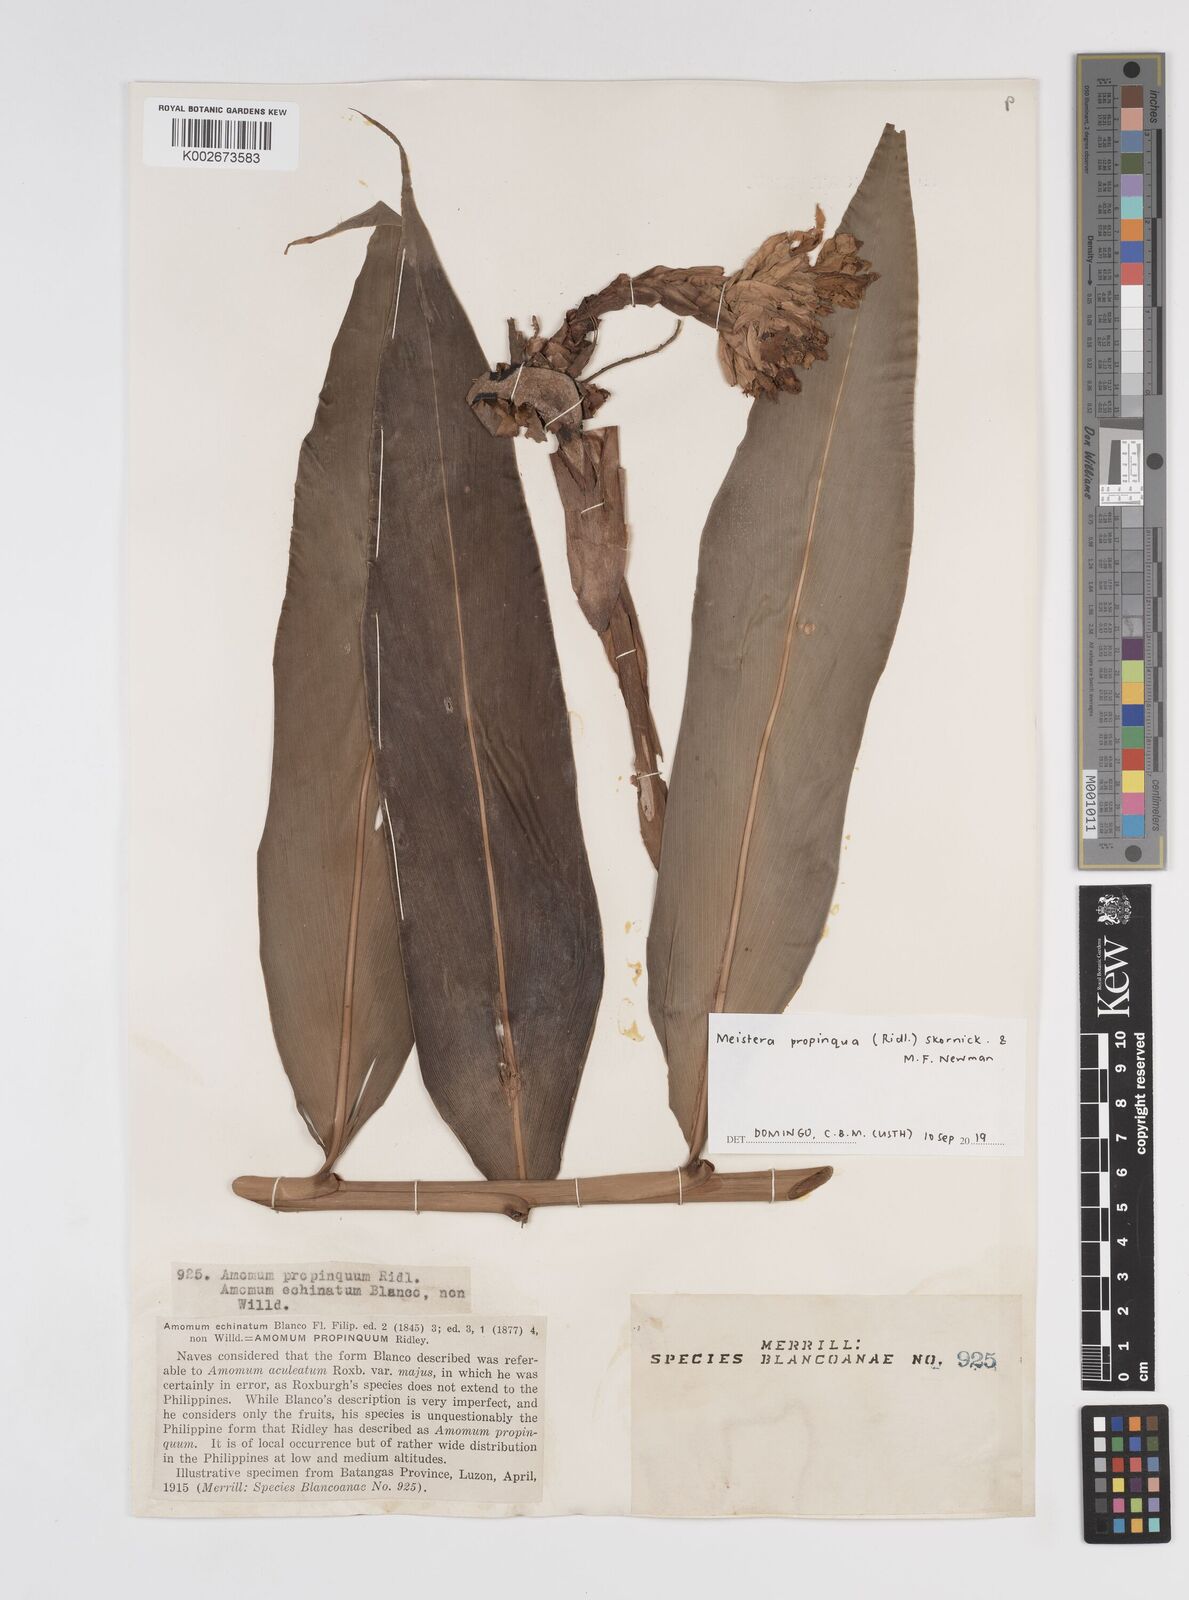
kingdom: Plantae
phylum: Tracheophyta
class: Liliopsida
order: Zingiberales
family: Zingiberaceae
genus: Meistera
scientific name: Meistera propinqua
